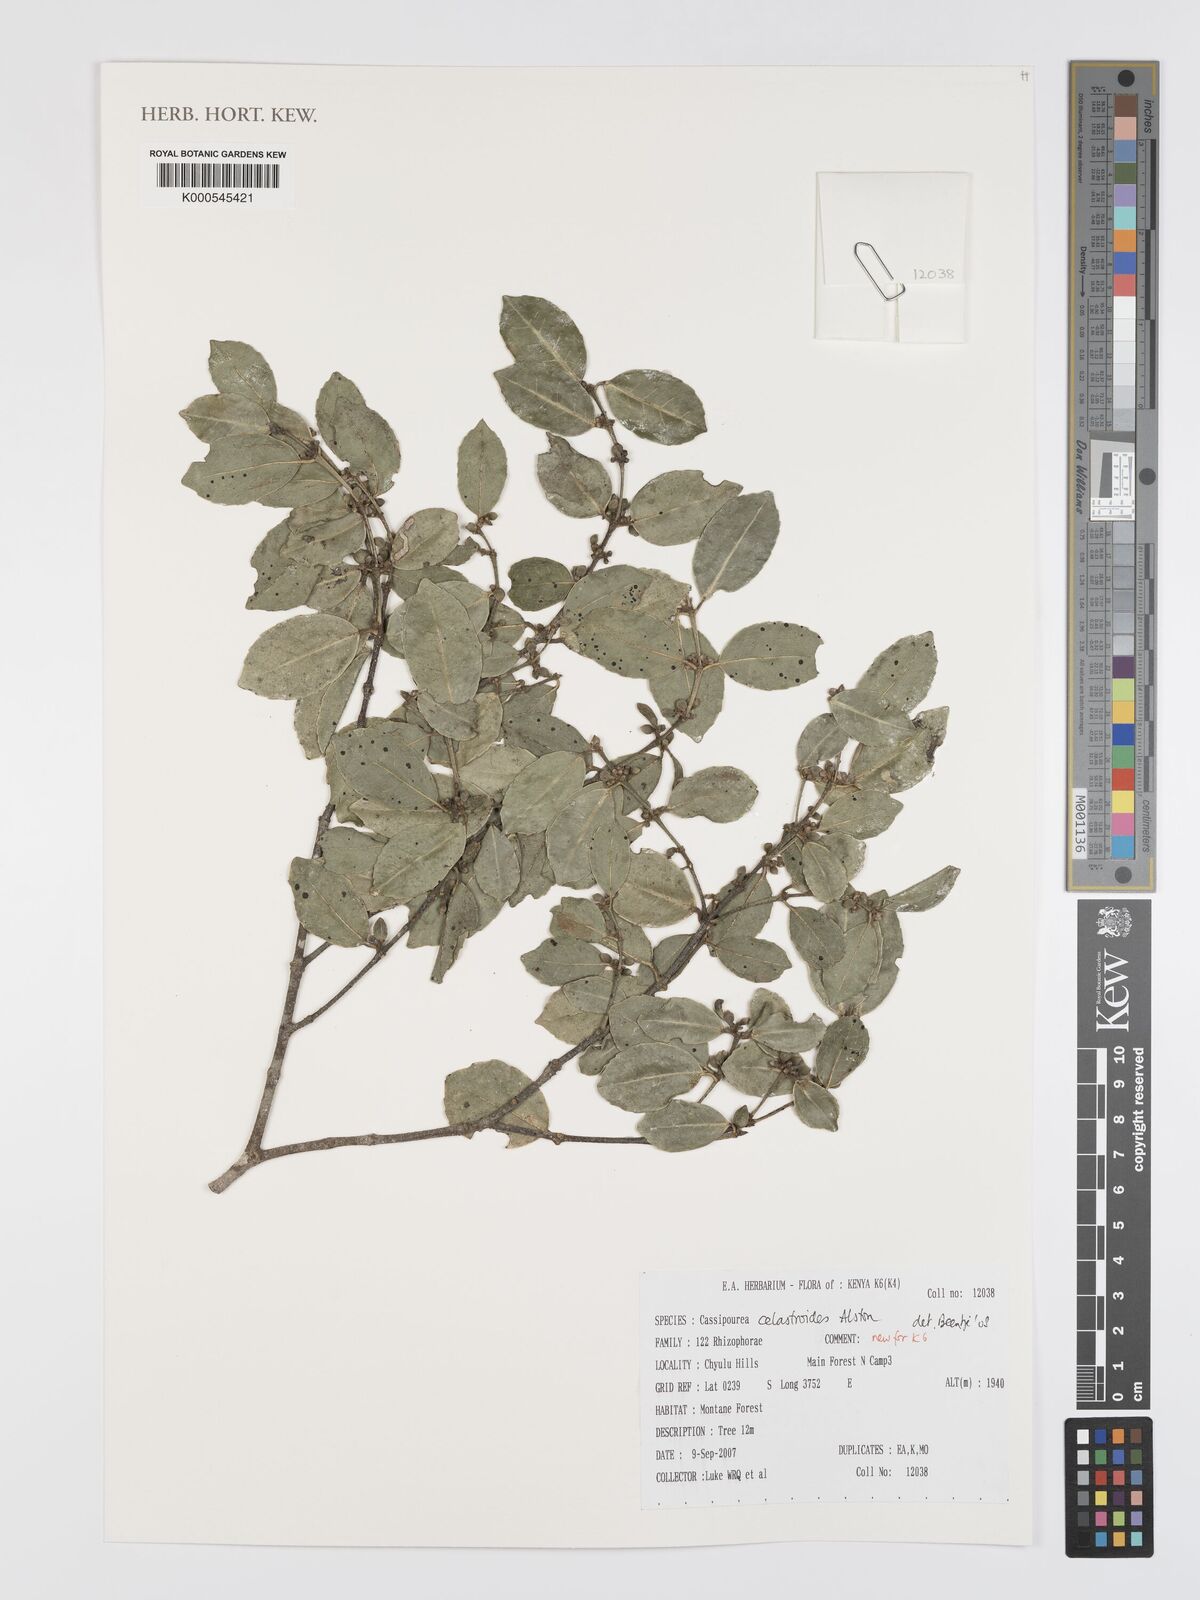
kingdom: Plantae
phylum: Tracheophyta
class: Magnoliopsida
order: Malpighiales
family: Rhizophoraceae
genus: Cassipourea
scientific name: Cassipourea celastroides
